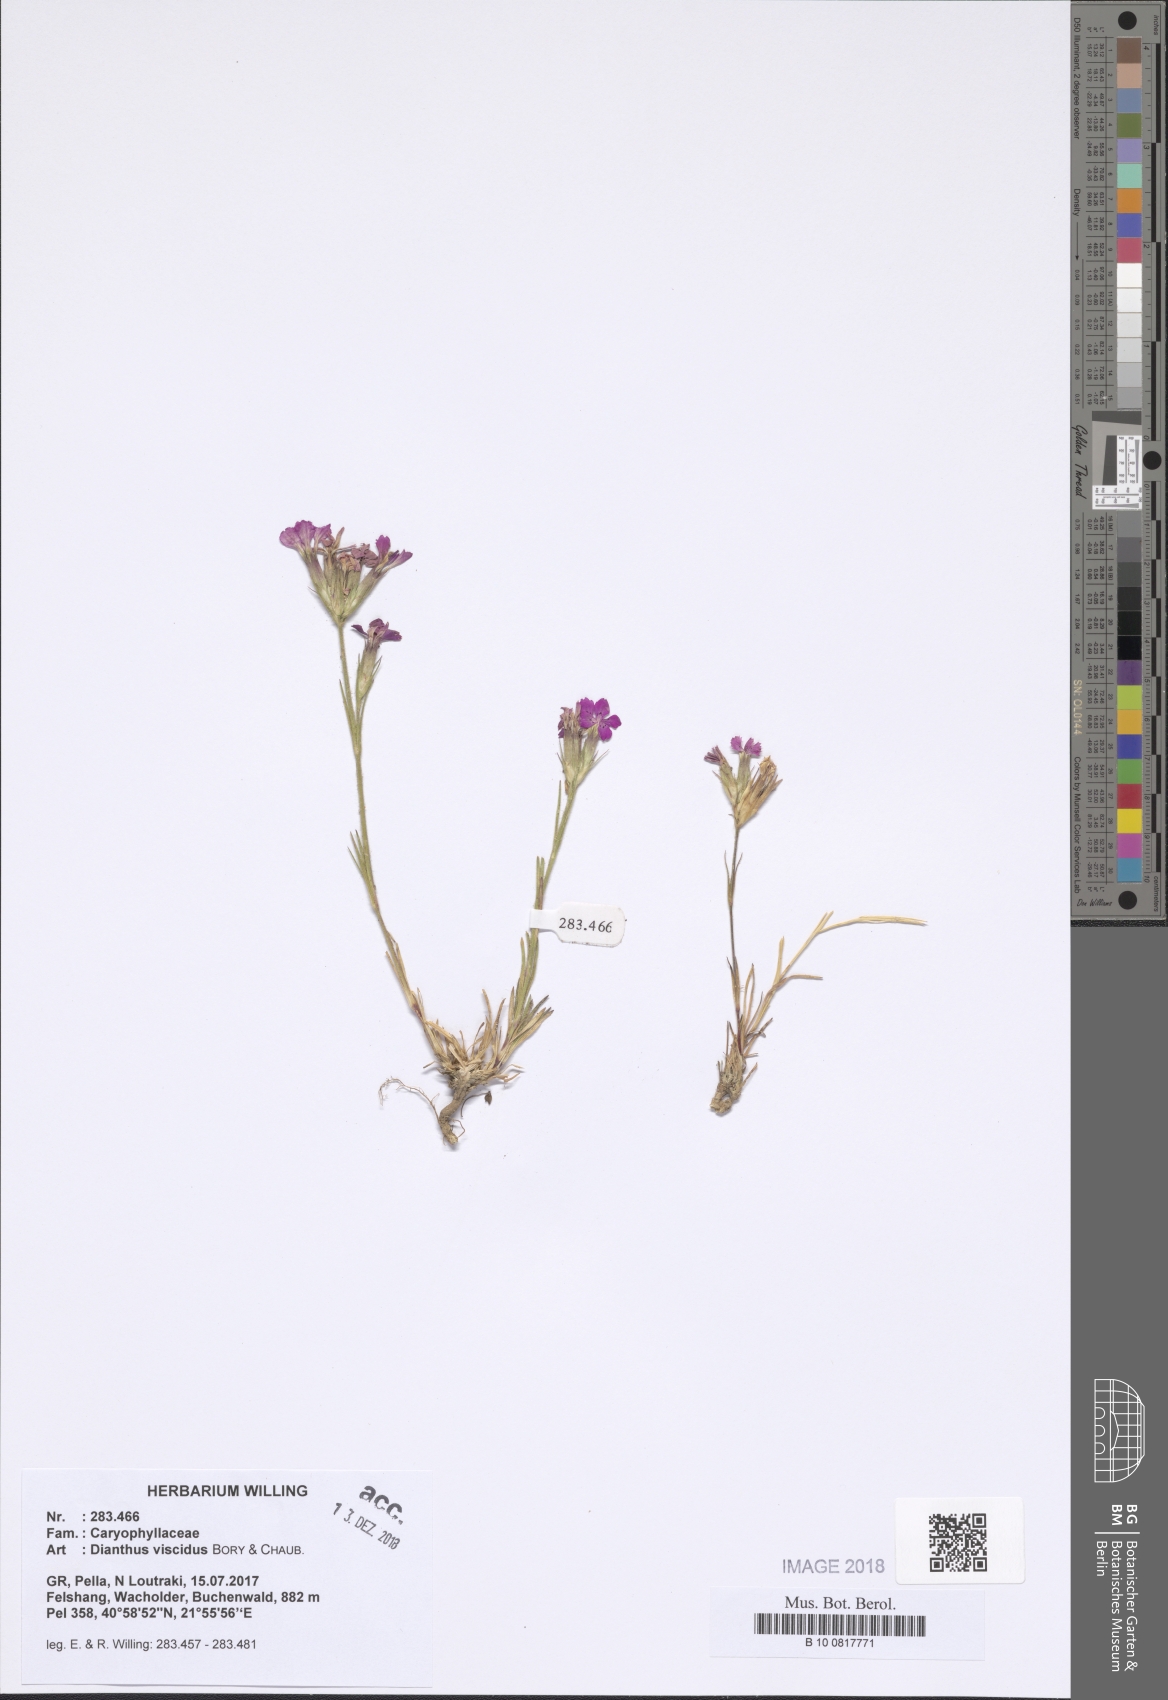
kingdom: Plantae
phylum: Tracheophyta
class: Magnoliopsida
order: Caryophyllales
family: Caryophyllaceae
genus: Dianthus
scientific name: Dianthus viscidus
